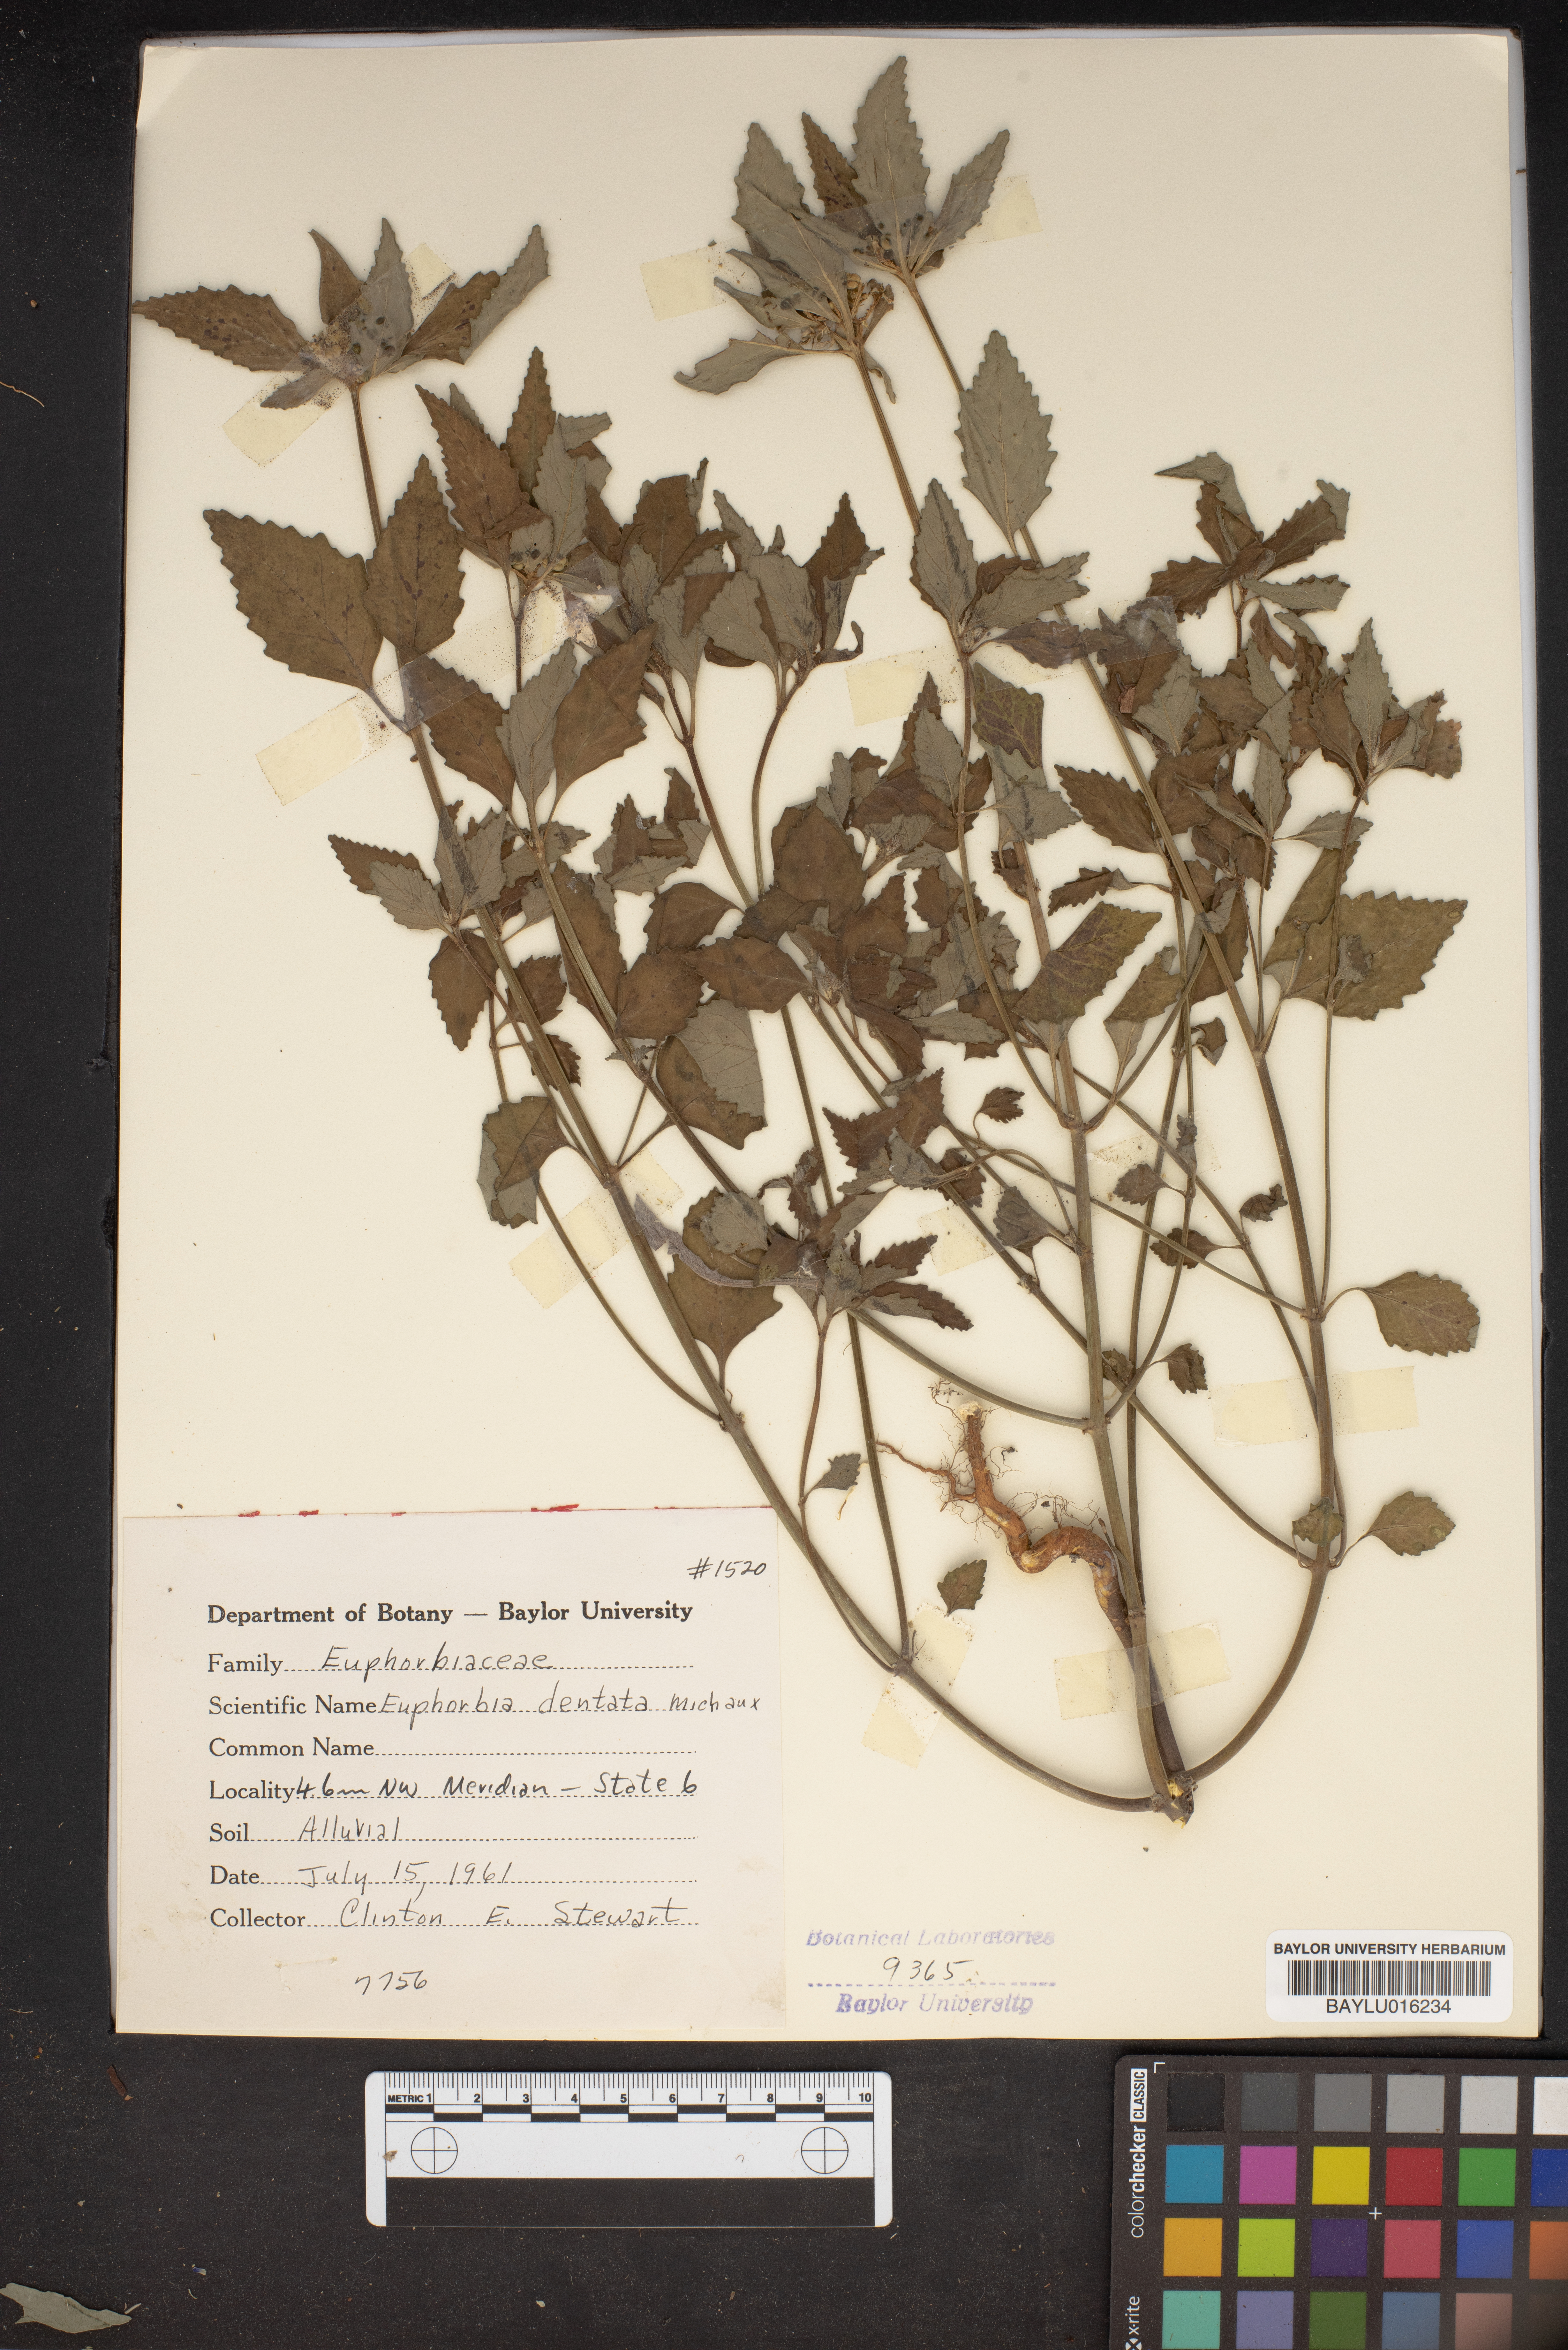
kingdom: Plantae
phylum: Tracheophyta
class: Magnoliopsida
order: Malpighiales
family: Euphorbiaceae
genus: Euphorbia
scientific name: Euphorbia dentata
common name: Dentate spurge
